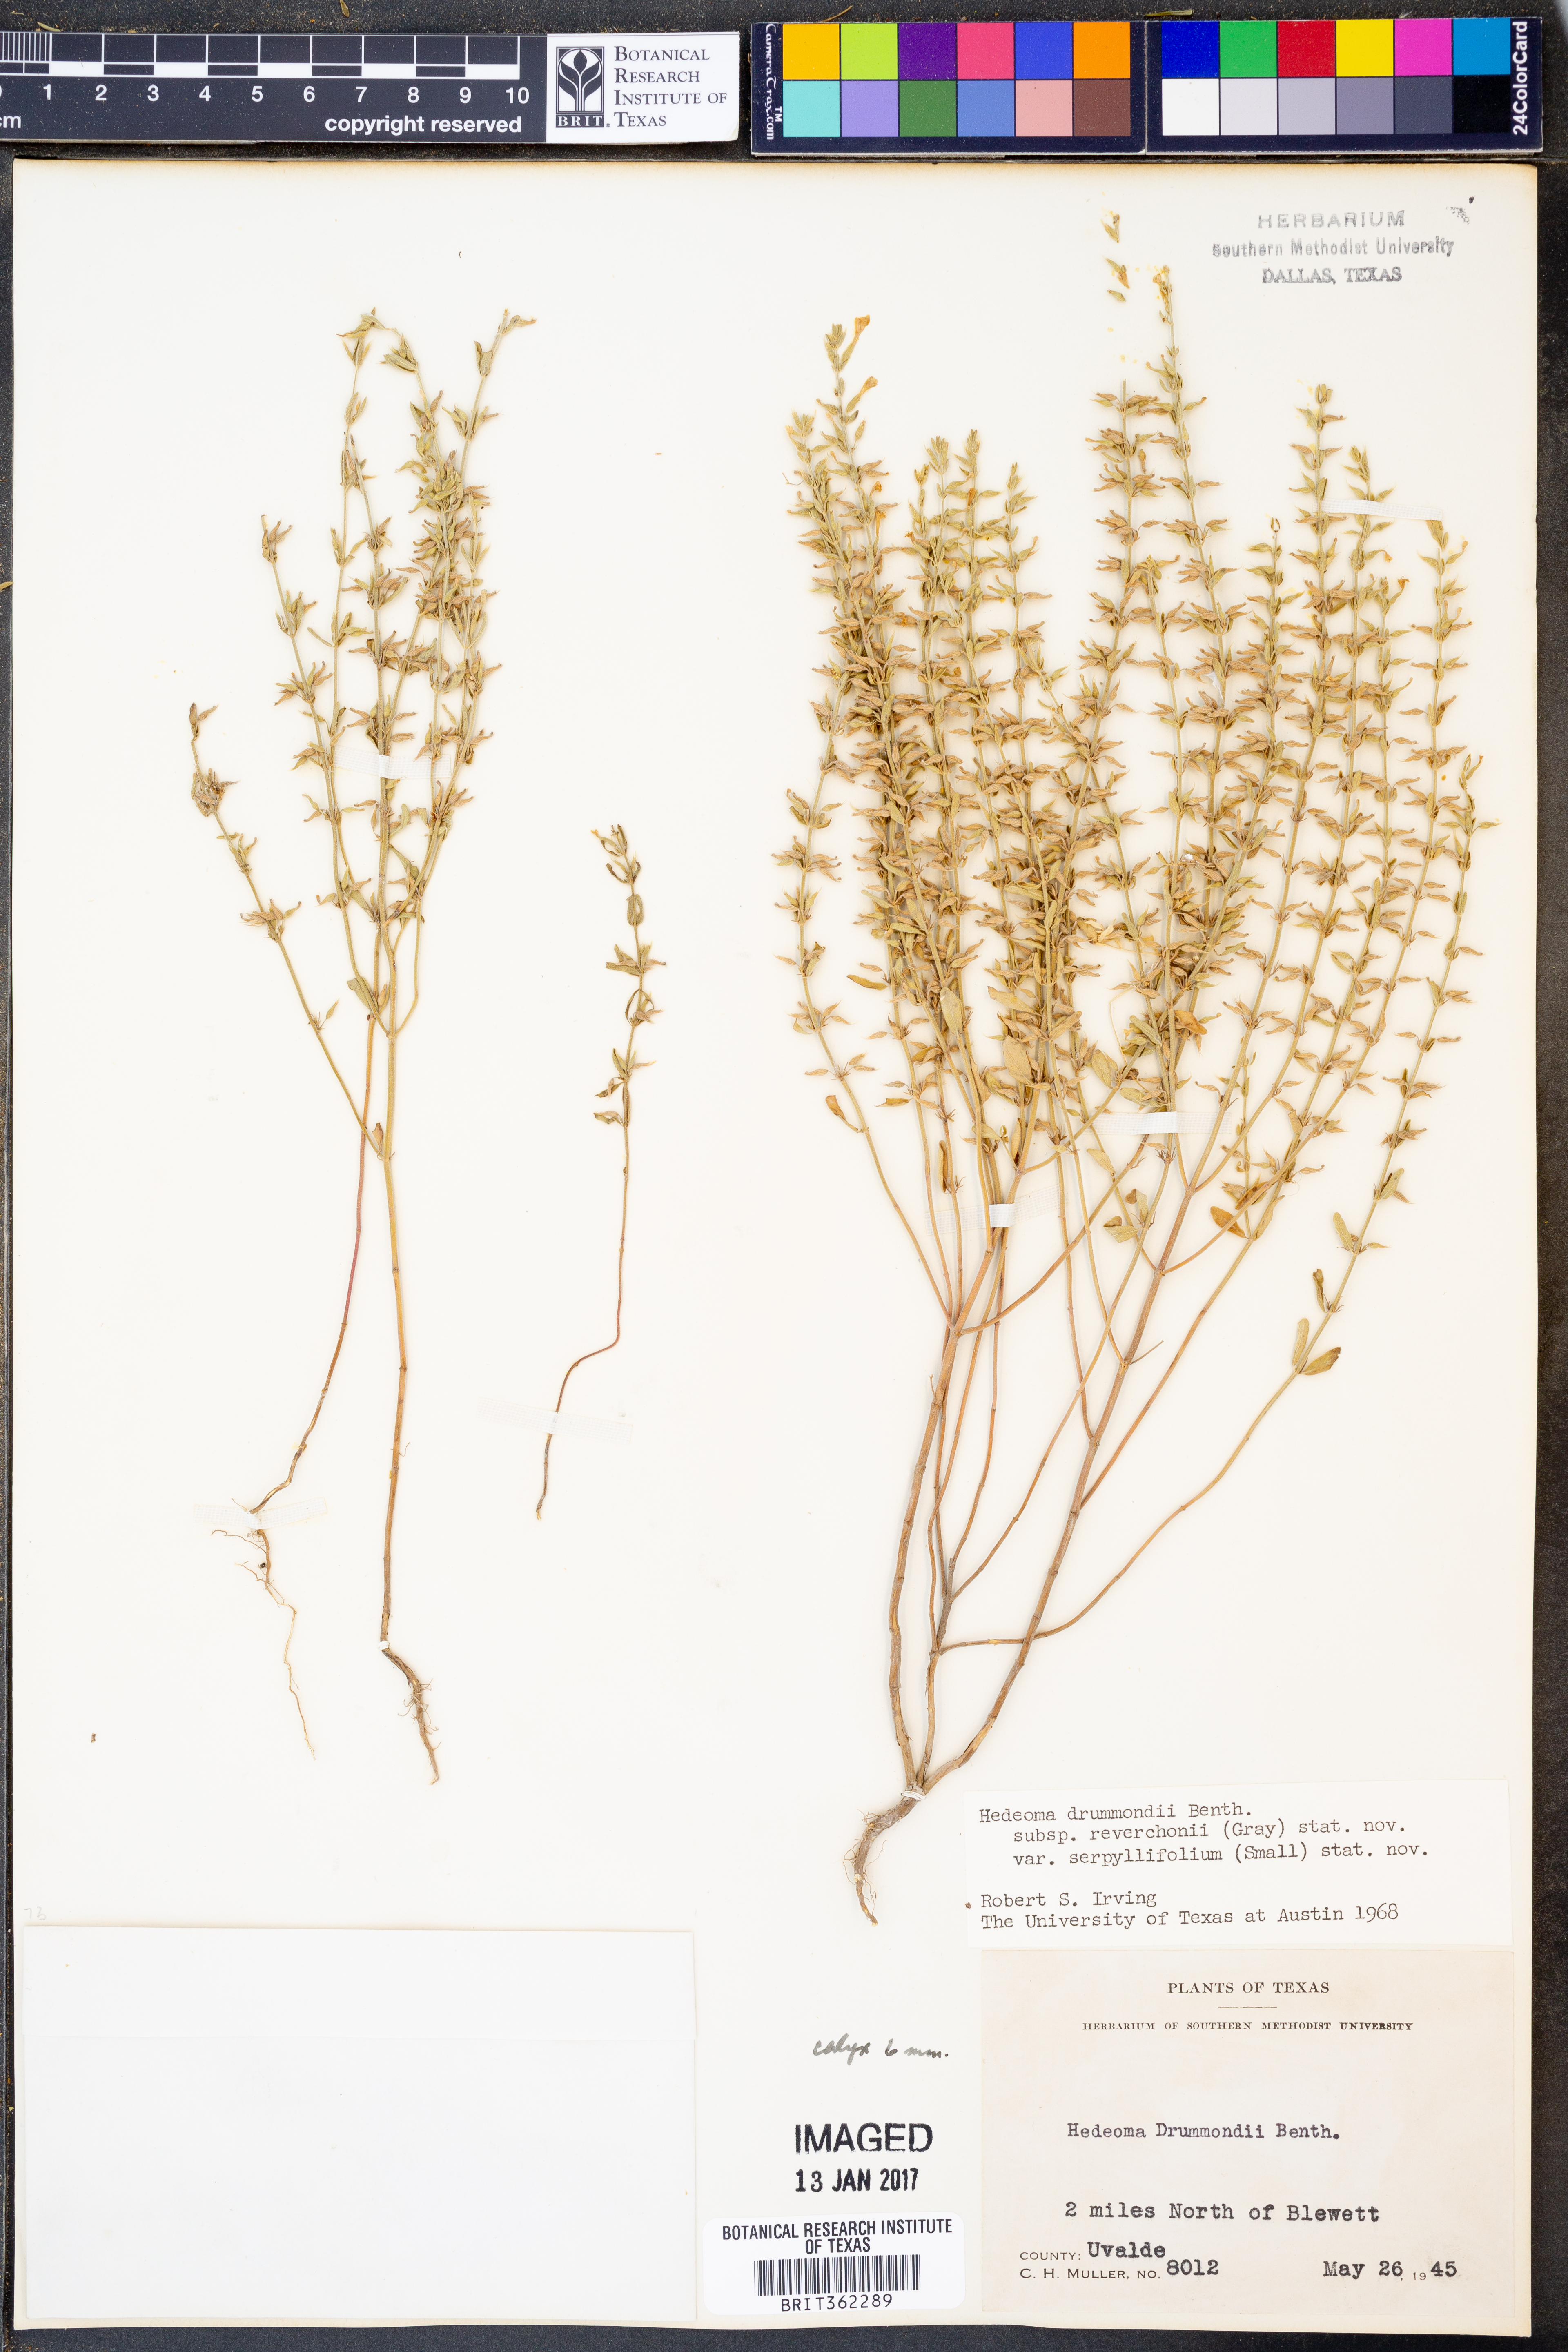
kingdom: Plantae
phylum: Tracheophyta
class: Magnoliopsida
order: Lamiales
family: Lamiaceae
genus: Hedeoma
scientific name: Hedeoma reverchonii
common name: Reverchon's false penny-royal
